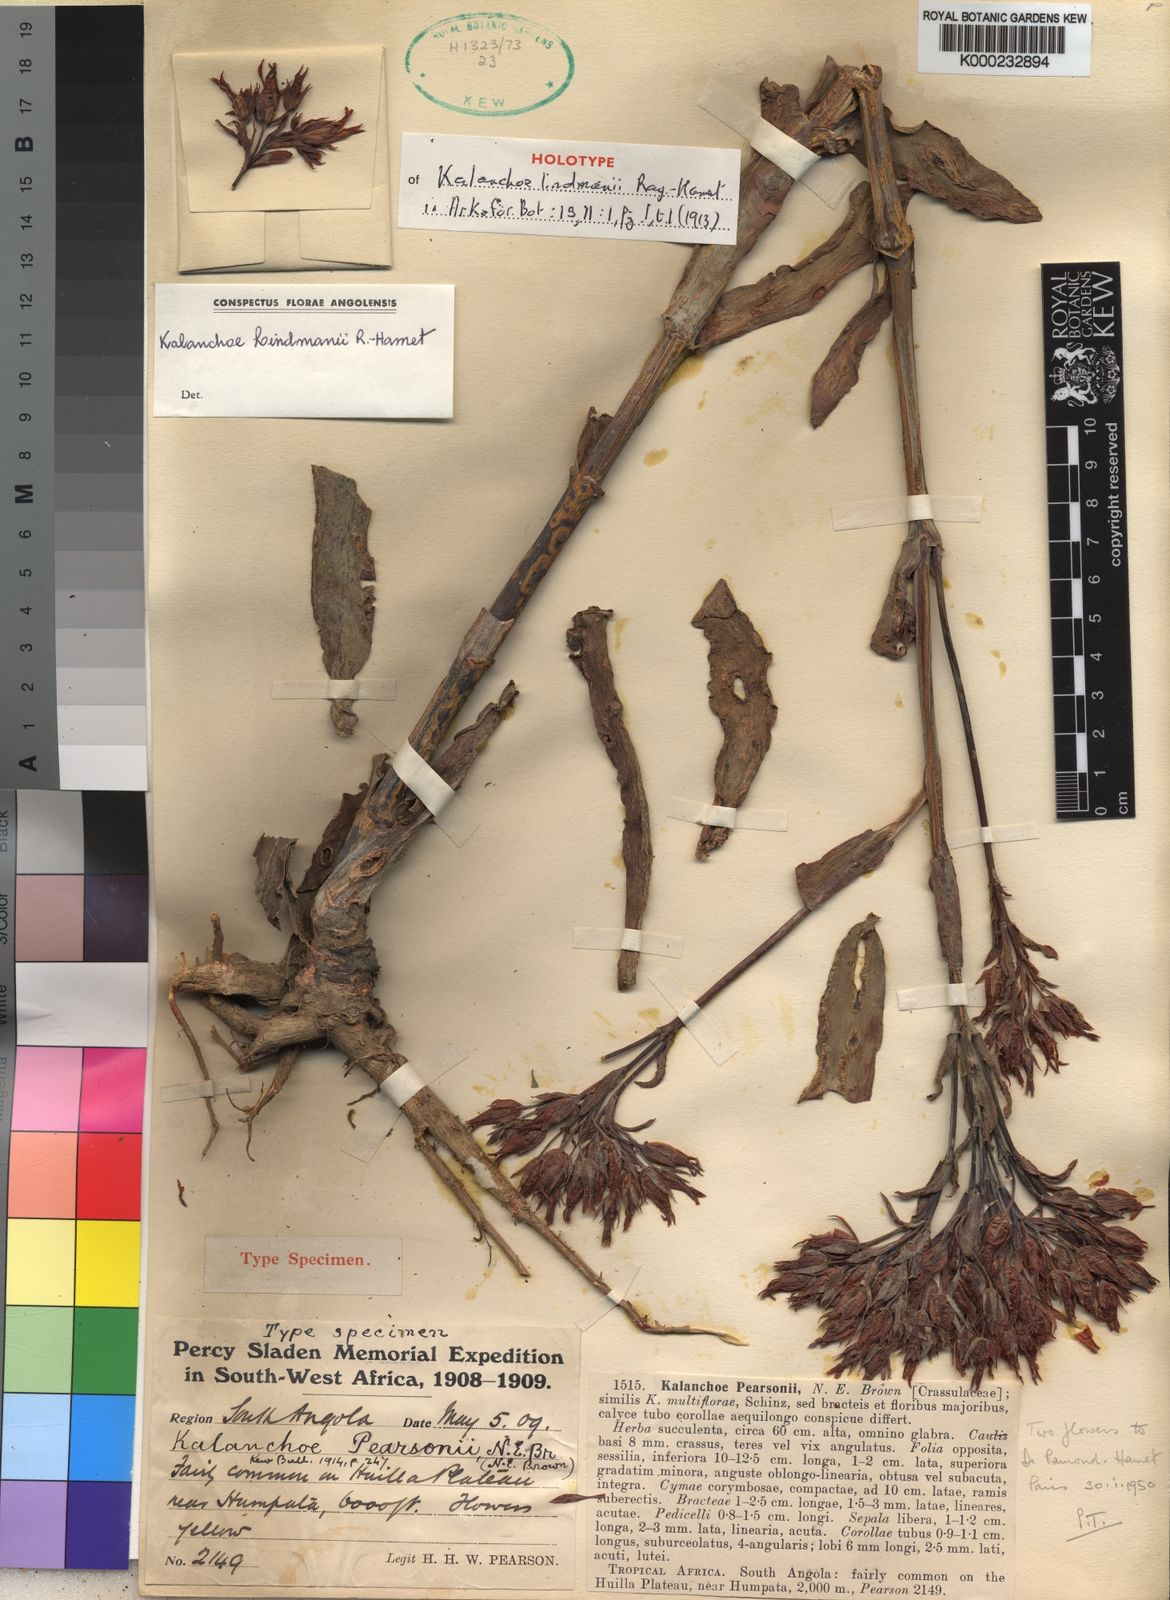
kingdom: Plantae
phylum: Tracheophyta
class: Magnoliopsida
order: Saxifragales
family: Crassulaceae
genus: Kalanchoe
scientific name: Kalanchoe lindmanii
